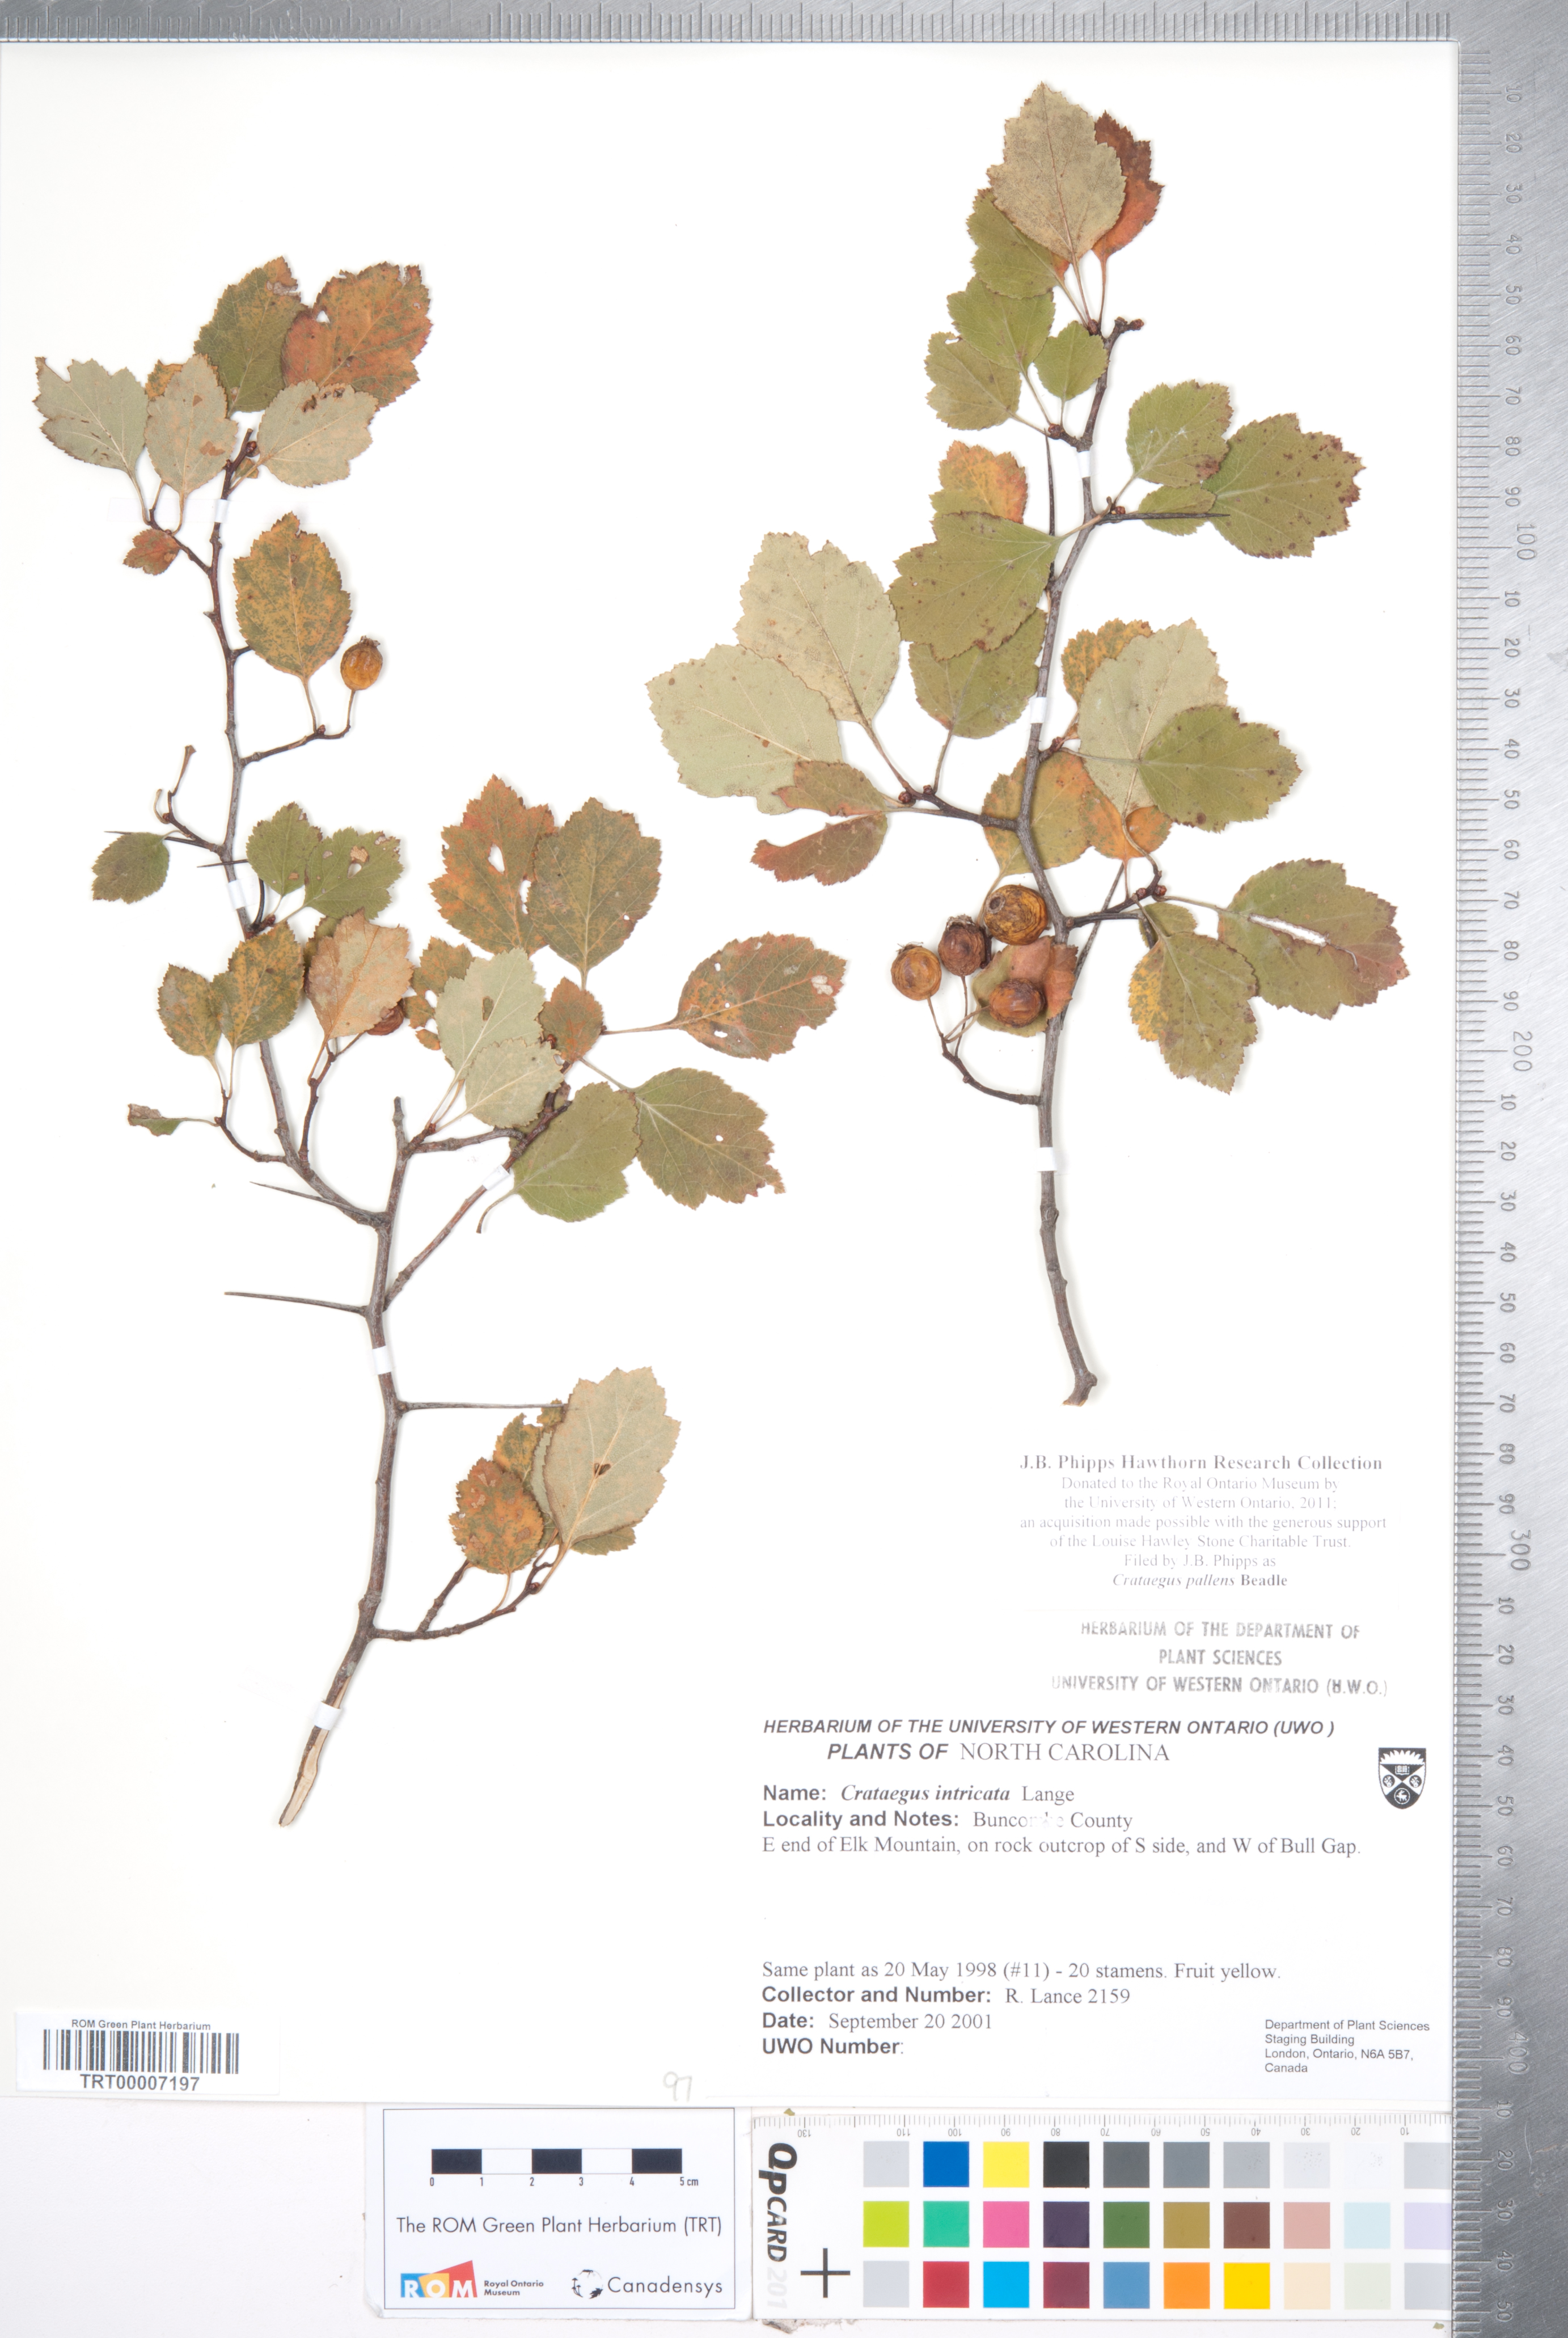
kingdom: Plantae
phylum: Tracheophyta
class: Magnoliopsida
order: Rosales
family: Rosaceae
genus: Crataegus
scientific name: Crataegus pulcherrima
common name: Beautiful hawthorn
